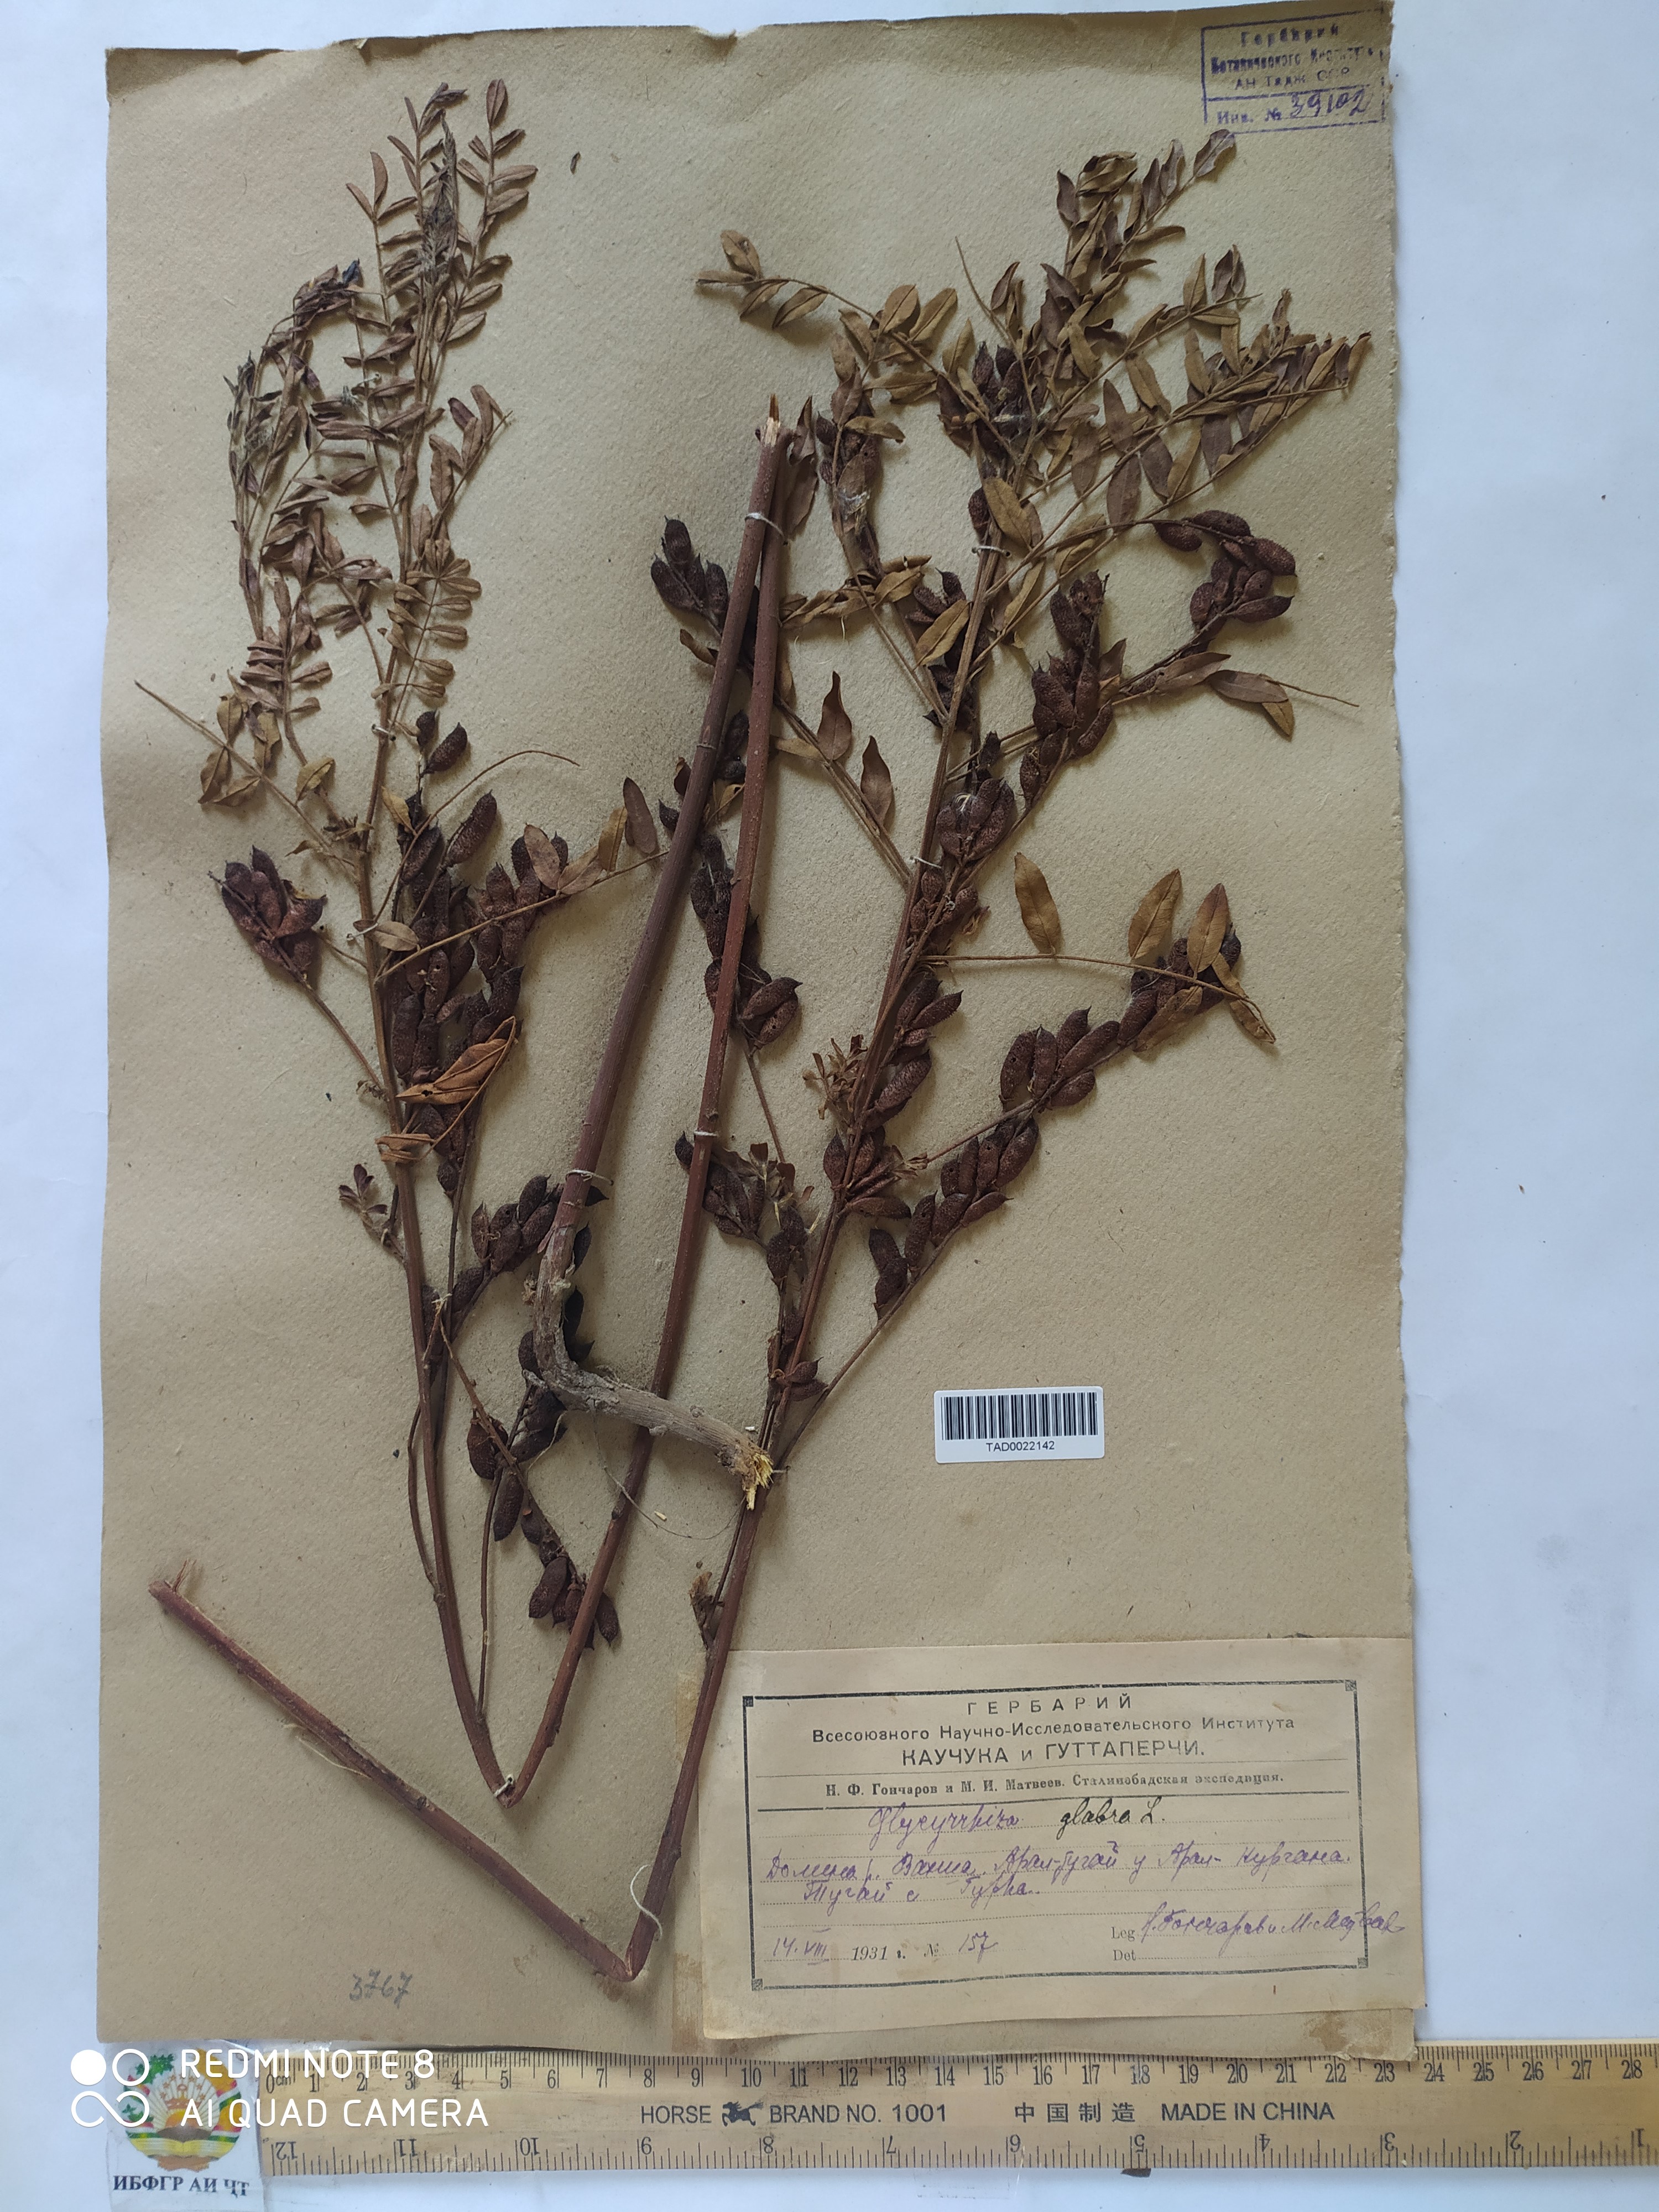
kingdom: Plantae
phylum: Tracheophyta
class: Magnoliopsida
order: Fabales
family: Fabaceae
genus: Glycyrrhiza
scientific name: Glycyrrhiza glabra
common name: Liquorice
